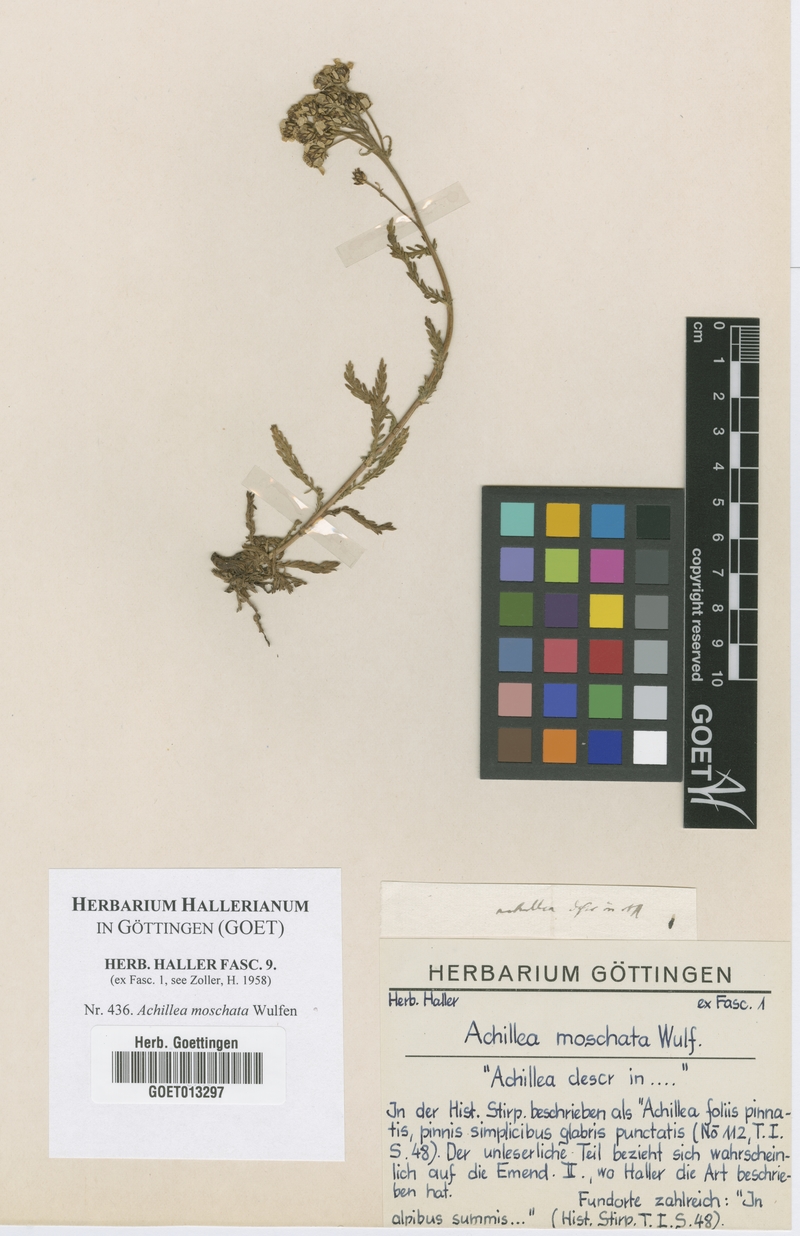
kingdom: Plantae
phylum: Tracheophyta
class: Magnoliopsida
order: Asterales
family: Asteraceae
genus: Achillea
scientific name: Achillea erba-rotta
